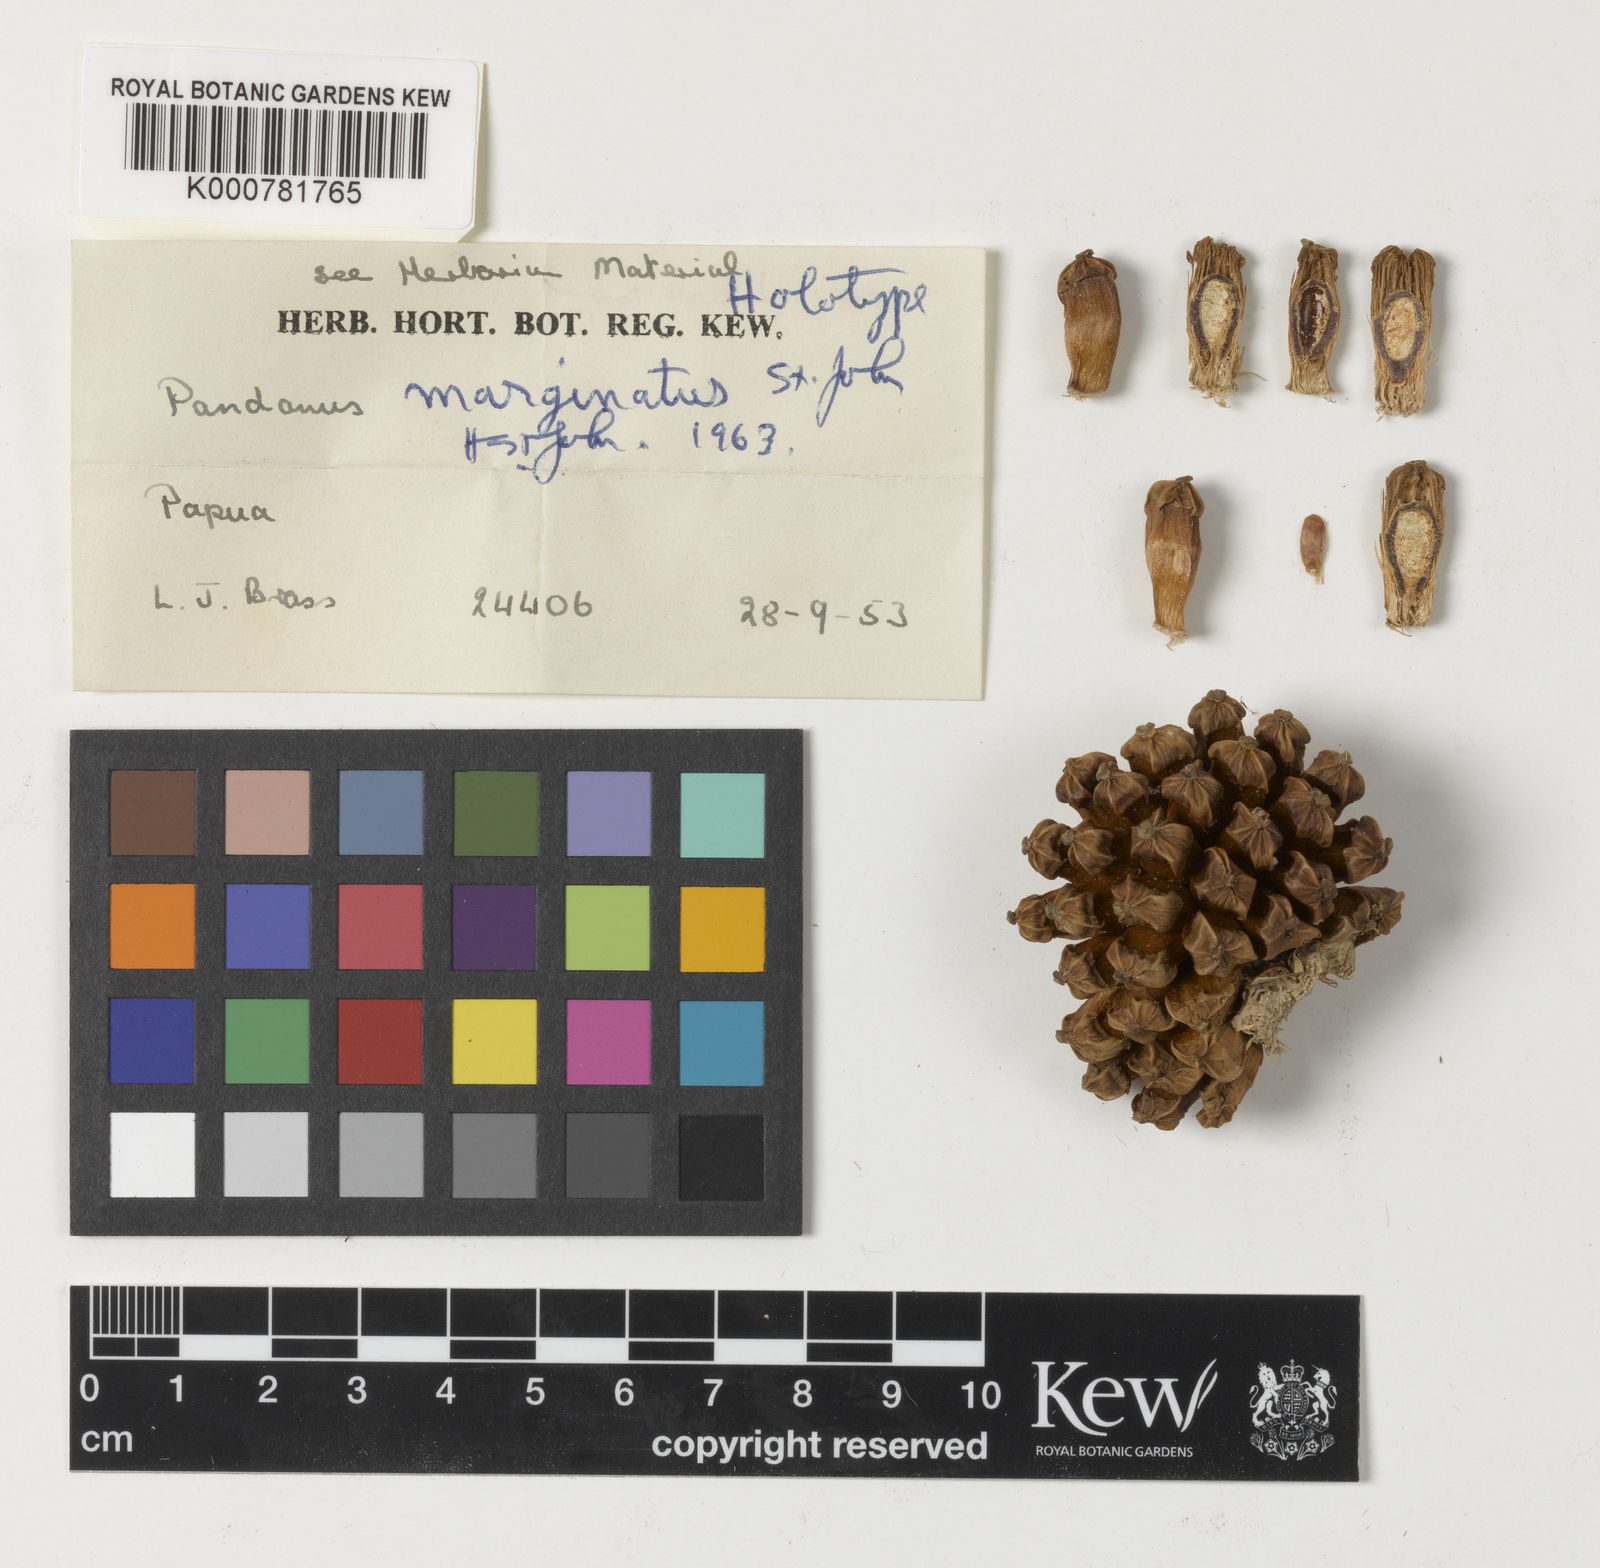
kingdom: Plantae
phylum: Tracheophyta
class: Liliopsida
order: Pandanales
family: Pandanaceae
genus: Pandanus
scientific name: Pandanus menicostigma
